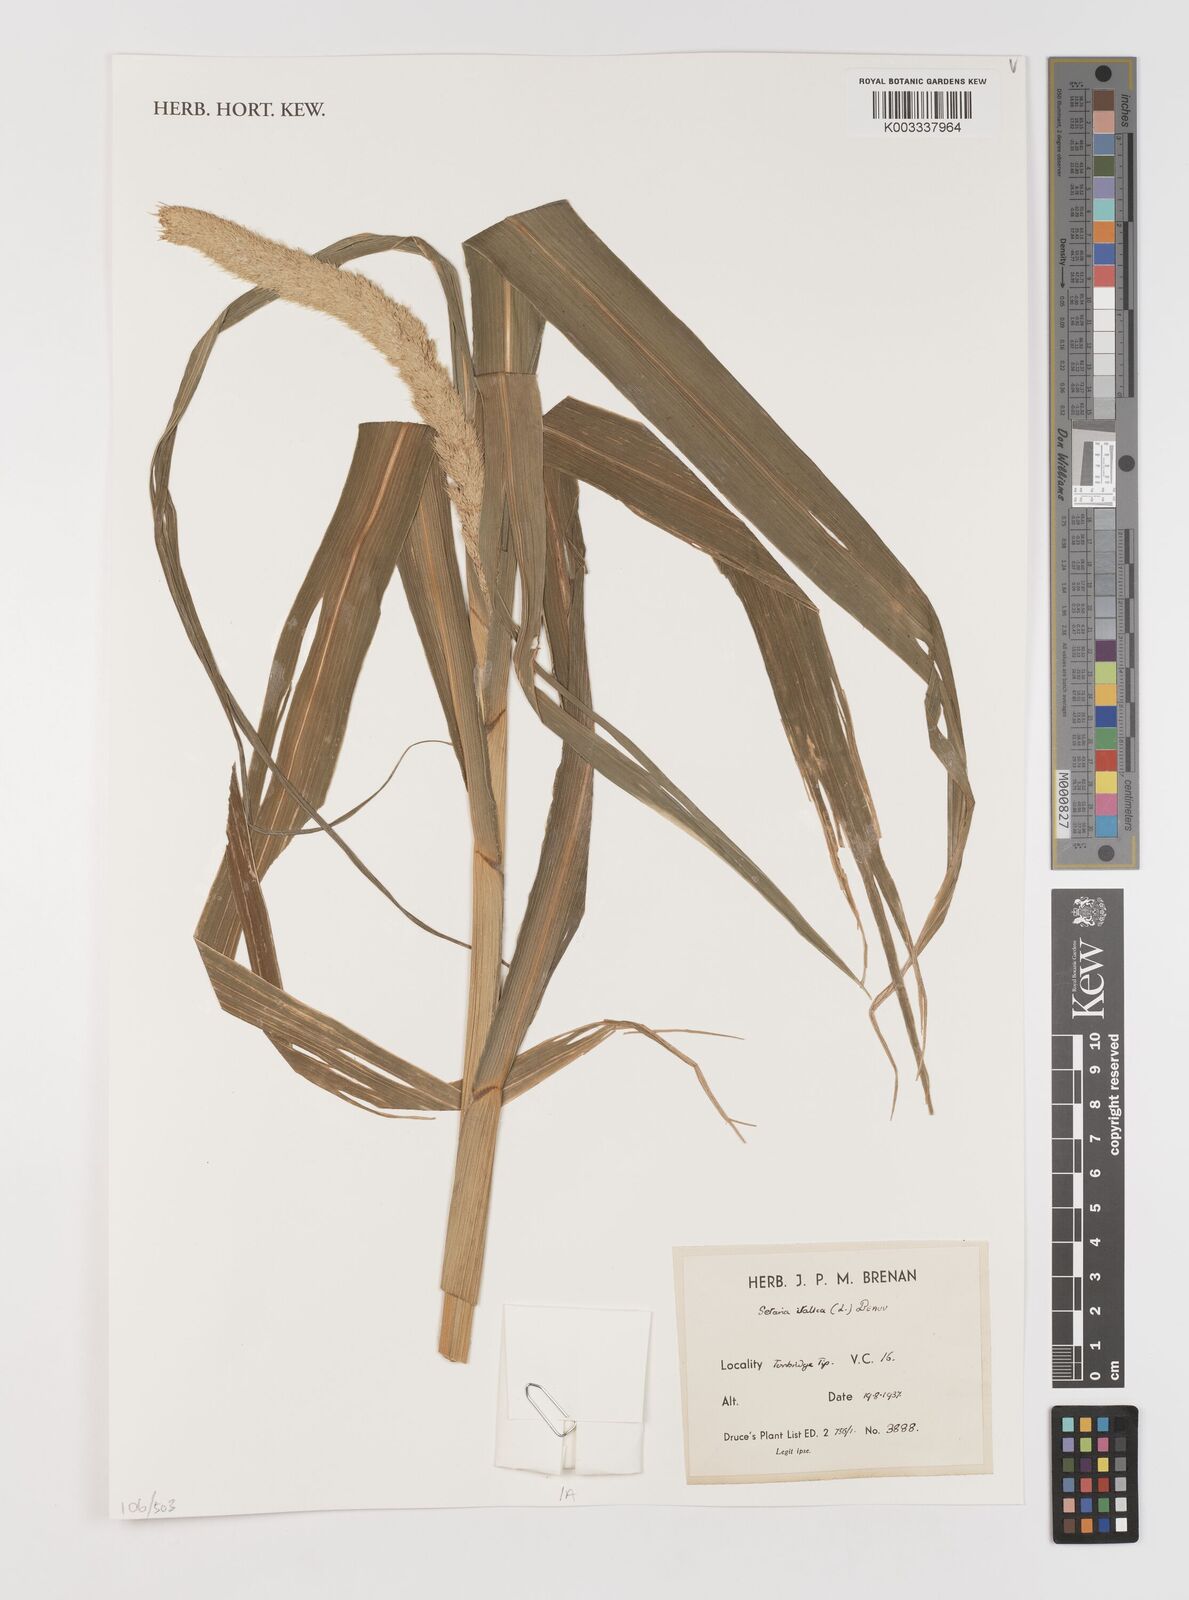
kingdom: Plantae
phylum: Tracheophyta
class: Liliopsida
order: Poales
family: Poaceae
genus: Setaria
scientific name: Setaria italica
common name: Foxtail bristle-grass
